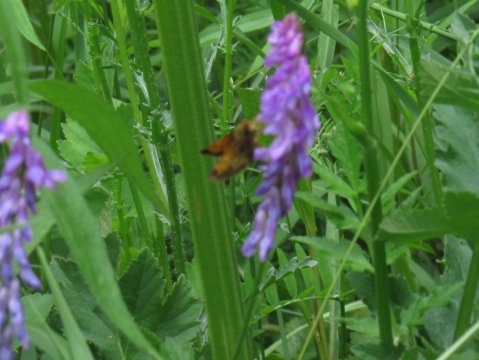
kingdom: Animalia
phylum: Arthropoda
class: Insecta
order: Lepidoptera
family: Hesperiidae
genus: Lon
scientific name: Lon hobomok
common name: Hobomok Skipper
